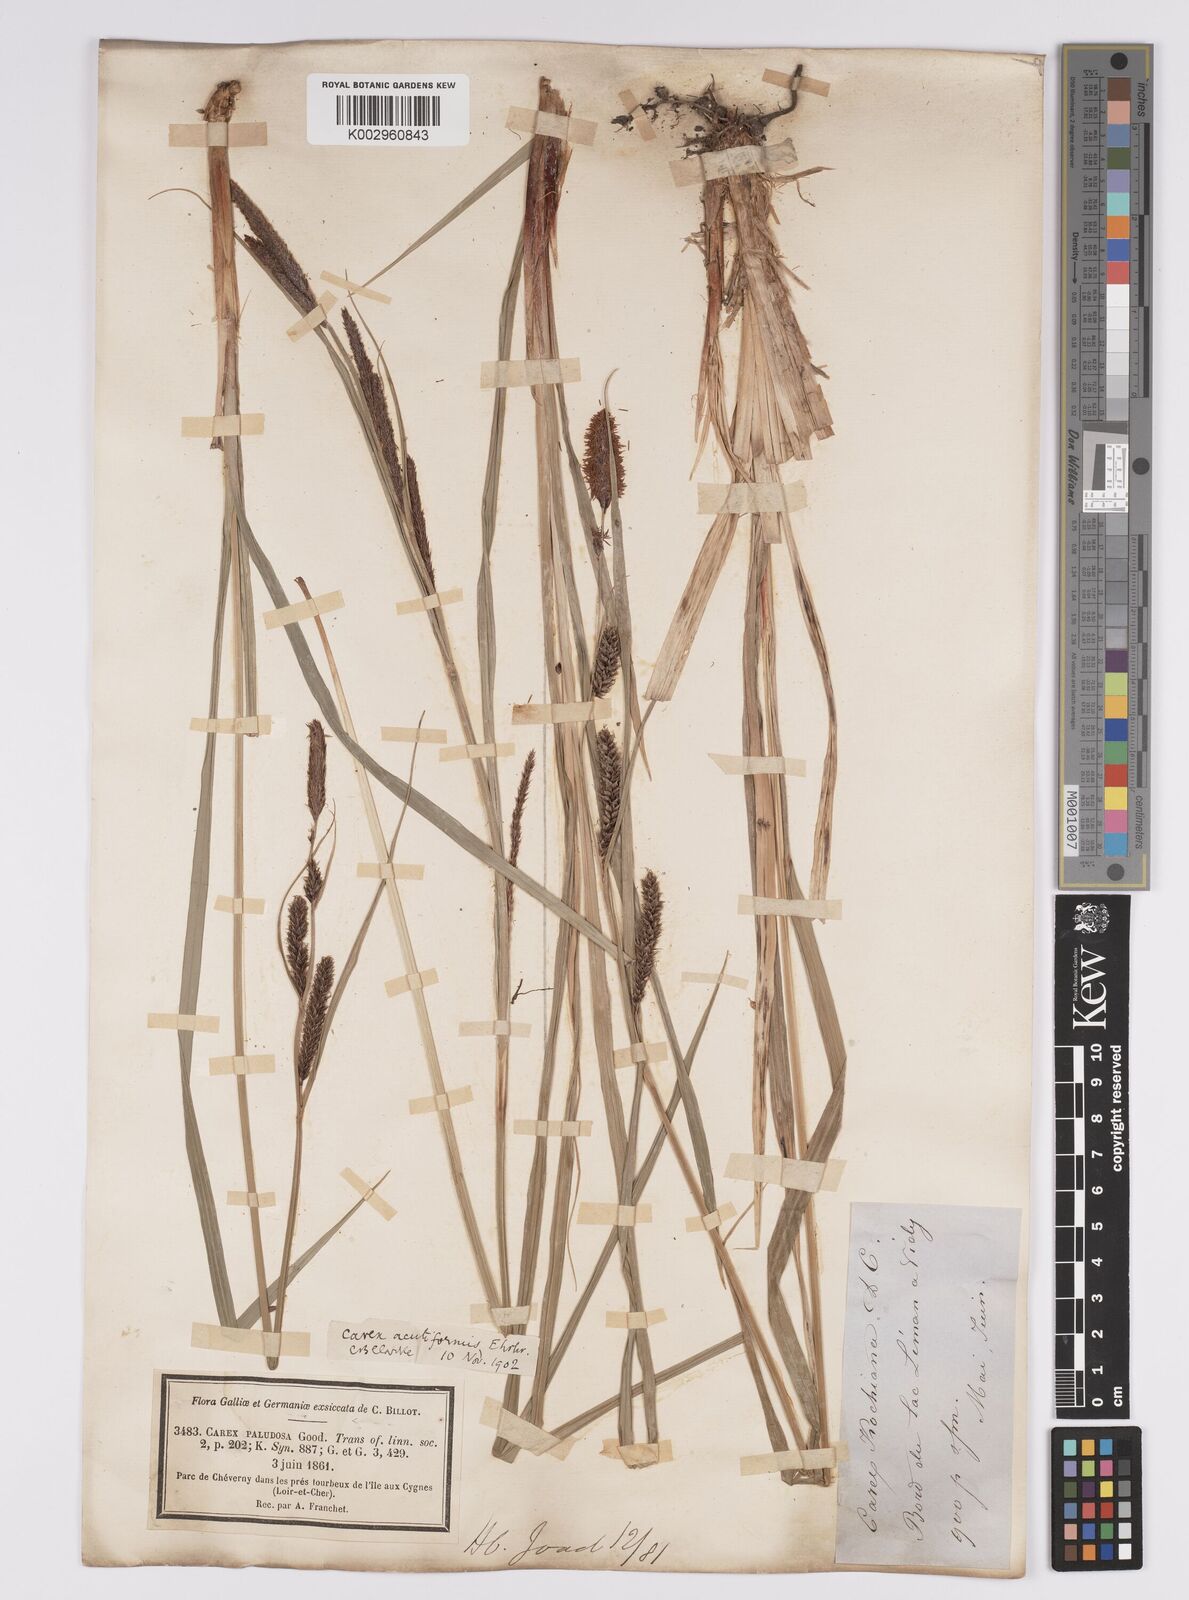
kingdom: Plantae
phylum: Tracheophyta
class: Liliopsida
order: Poales
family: Cyperaceae
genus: Carex
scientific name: Carex acutiformis
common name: Lesser pond-sedge
